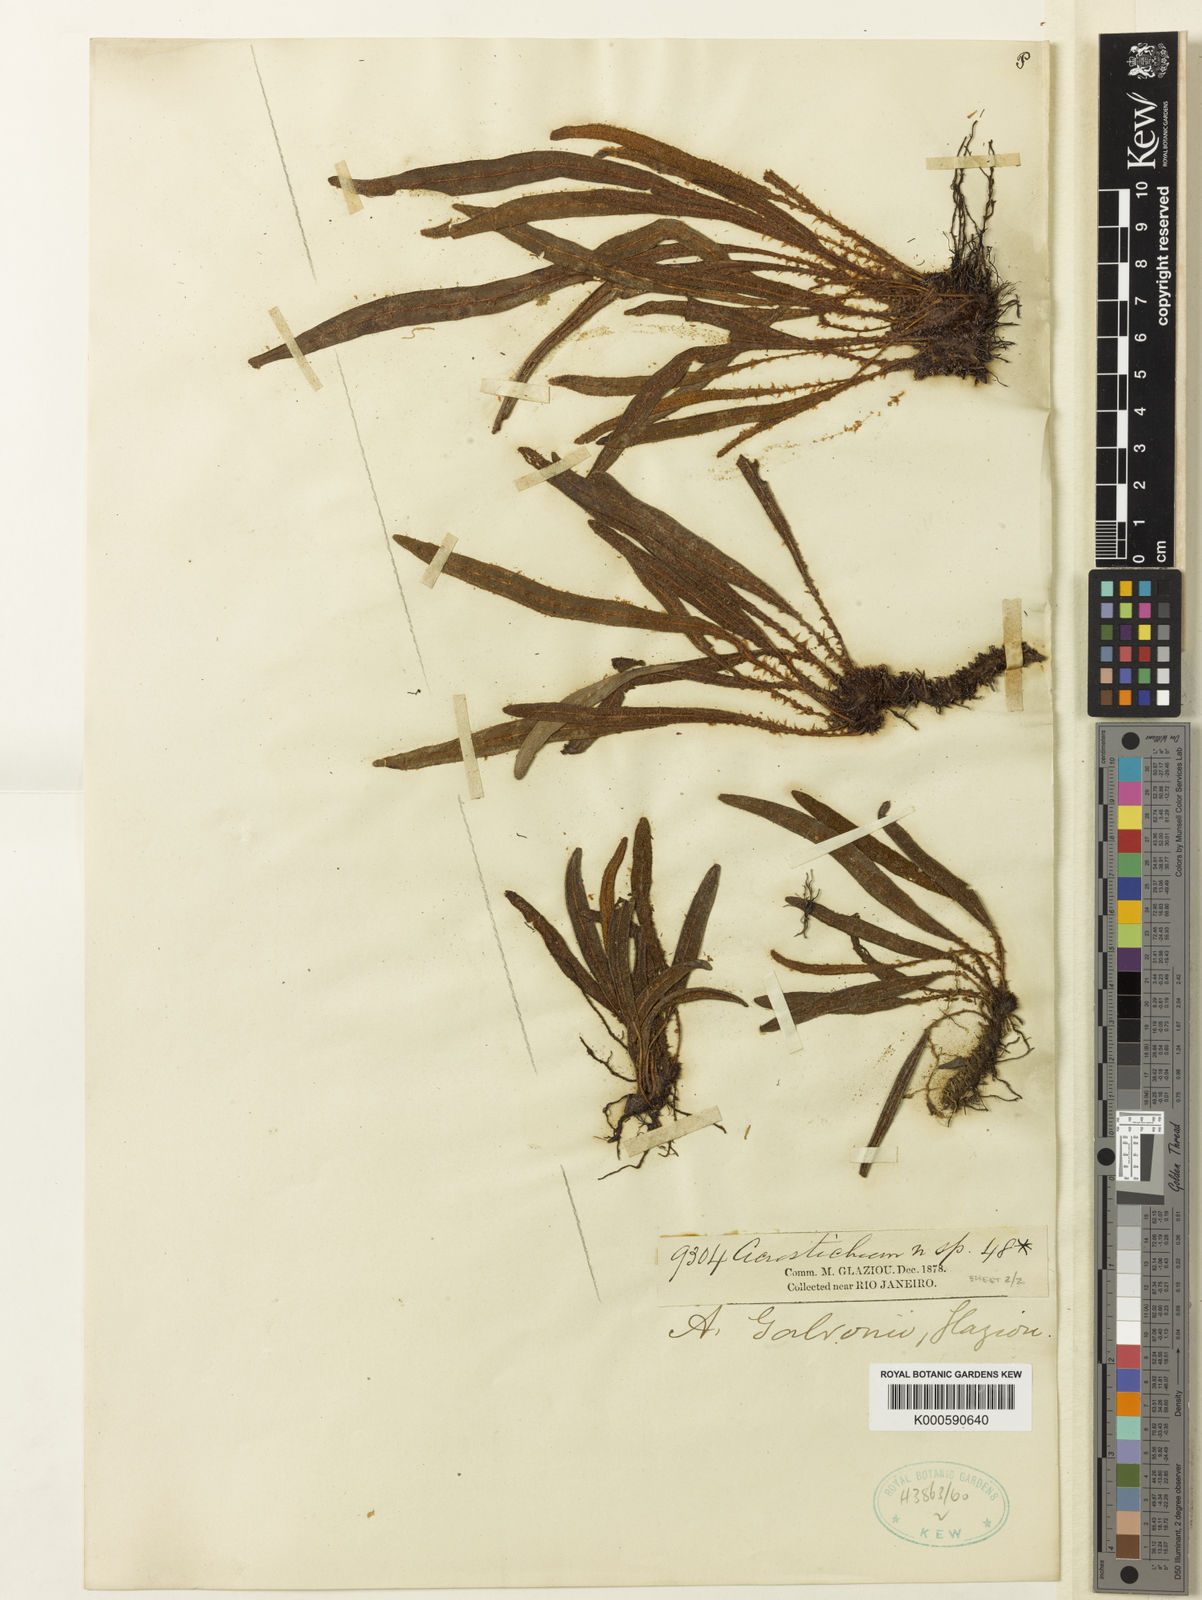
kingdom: Plantae
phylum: Tracheophyta
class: Polypodiopsida
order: Polypodiales
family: Dryopteridaceae
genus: Elaphoglossum
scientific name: Elaphoglossum
